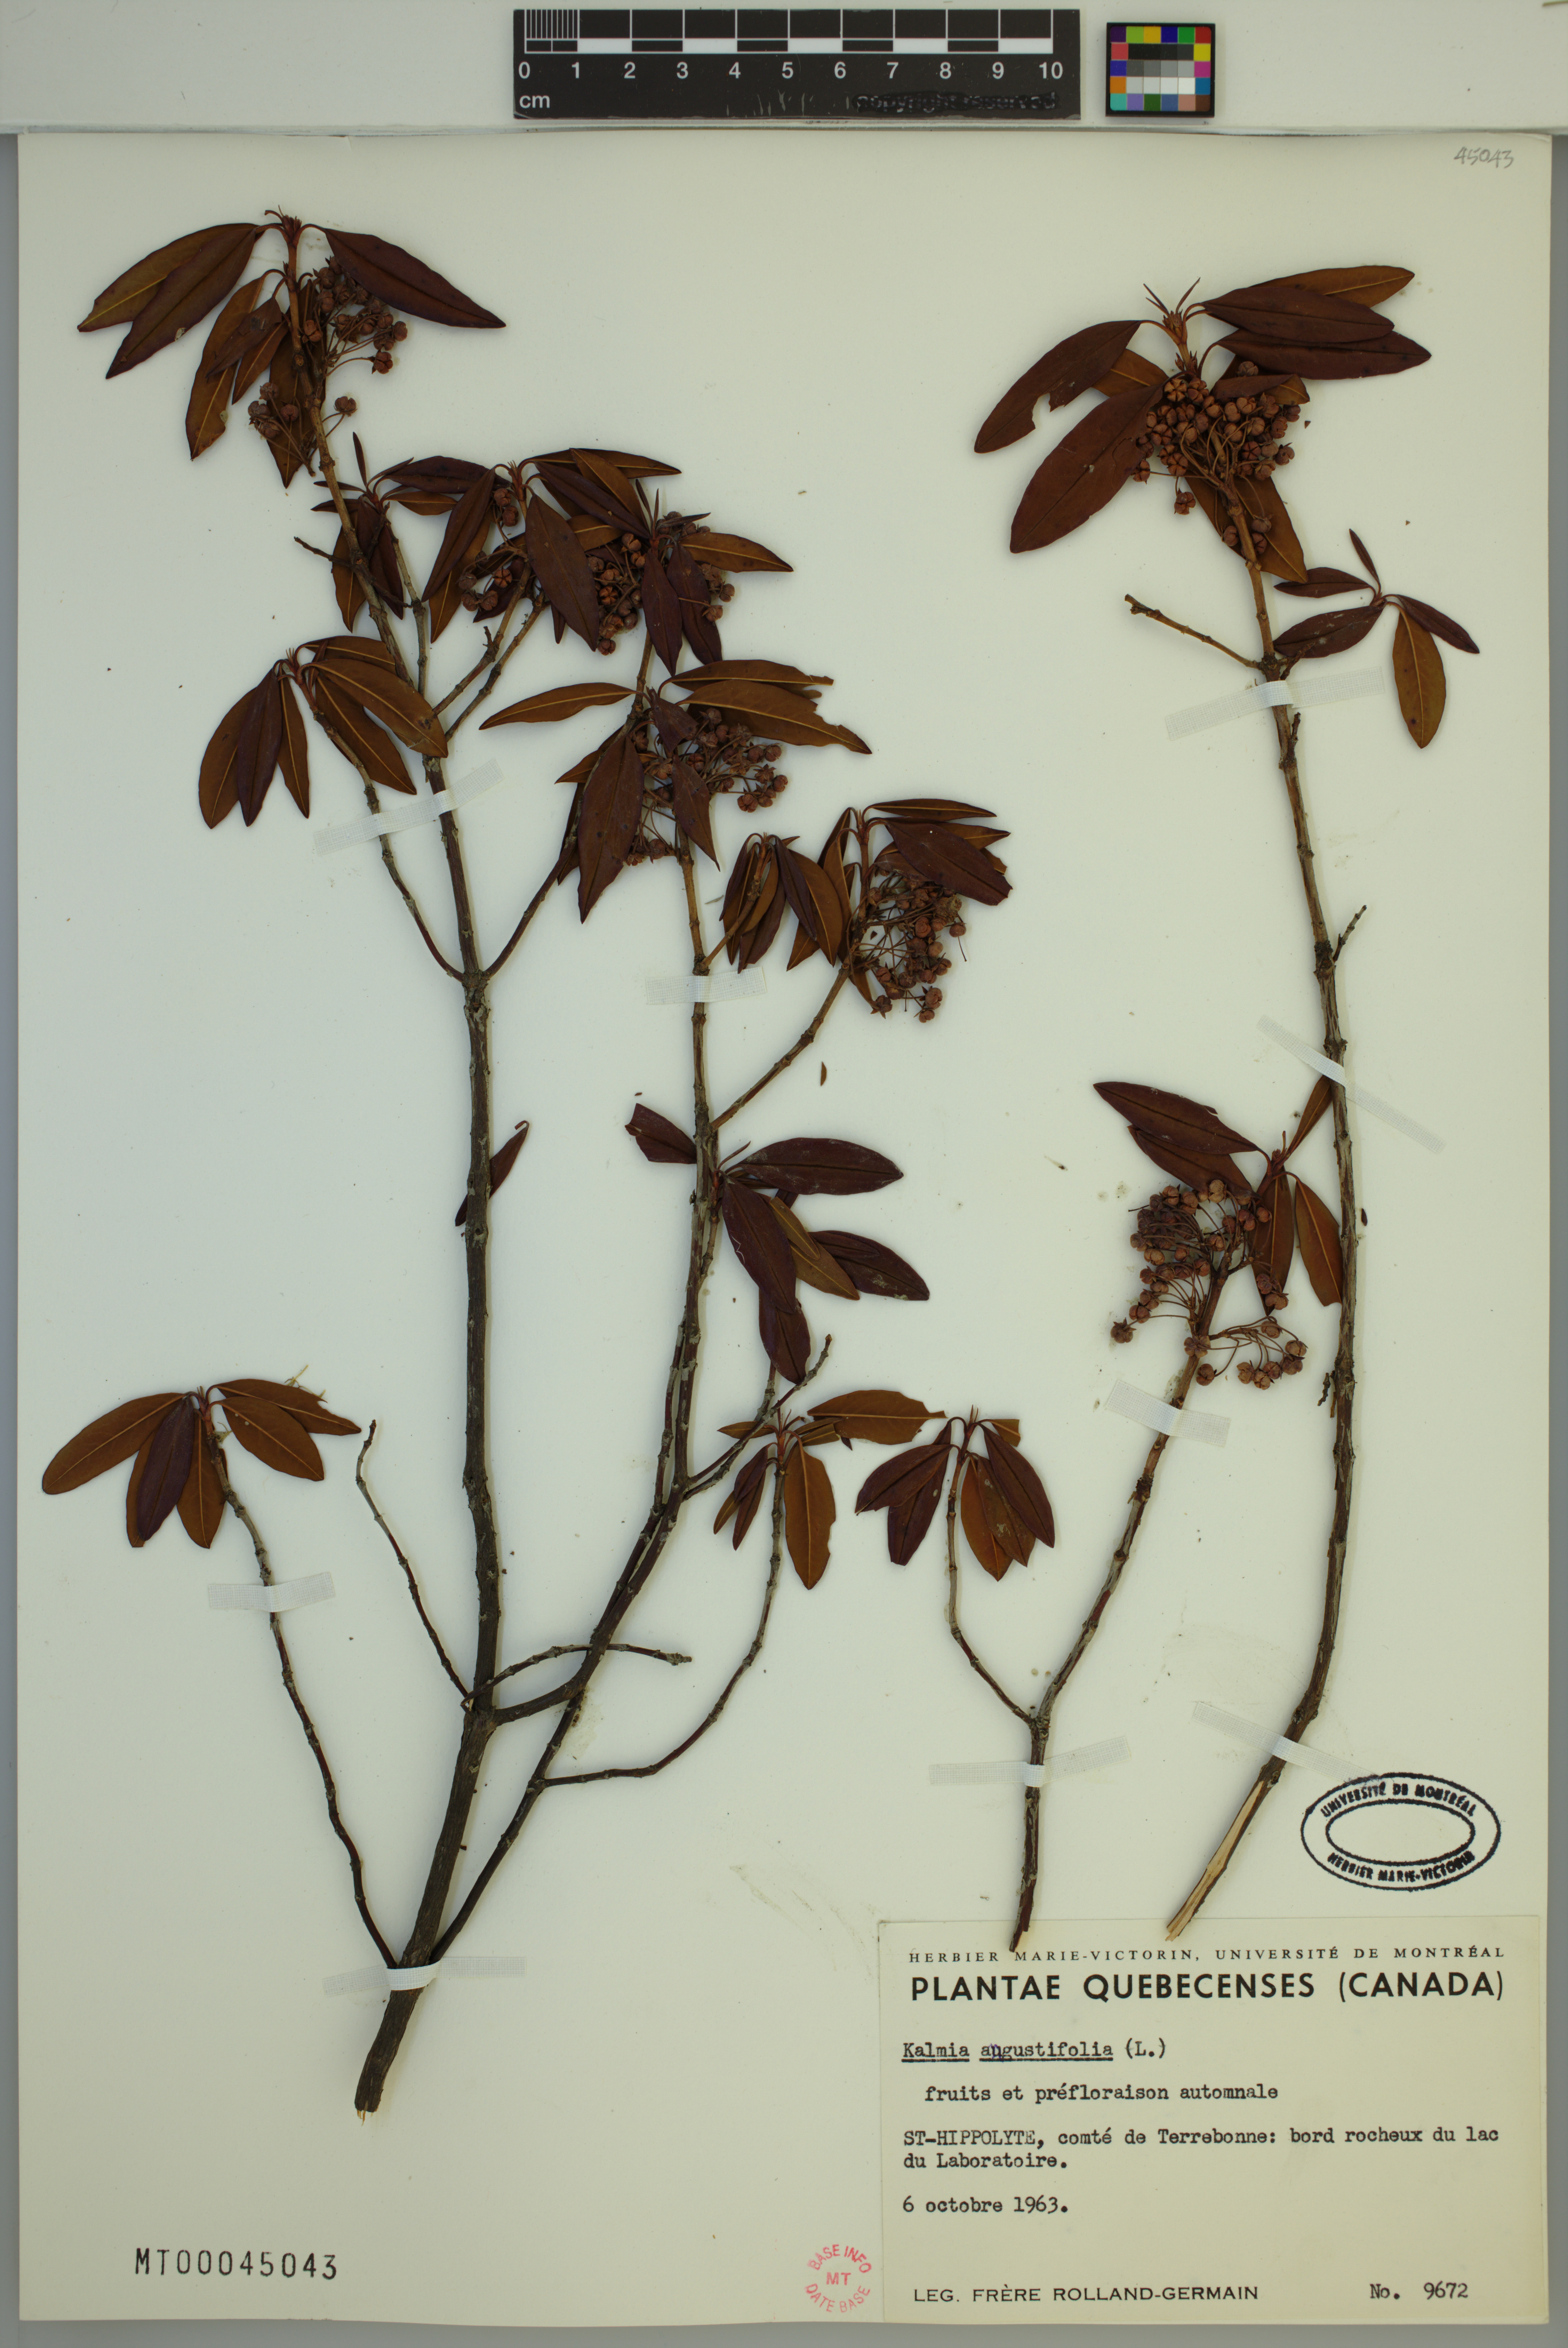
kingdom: Plantae
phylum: Tracheophyta
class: Magnoliopsida
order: Ericales
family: Ericaceae
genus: Kalmia
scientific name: Kalmia angustifolia
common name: Sheep-laurel
